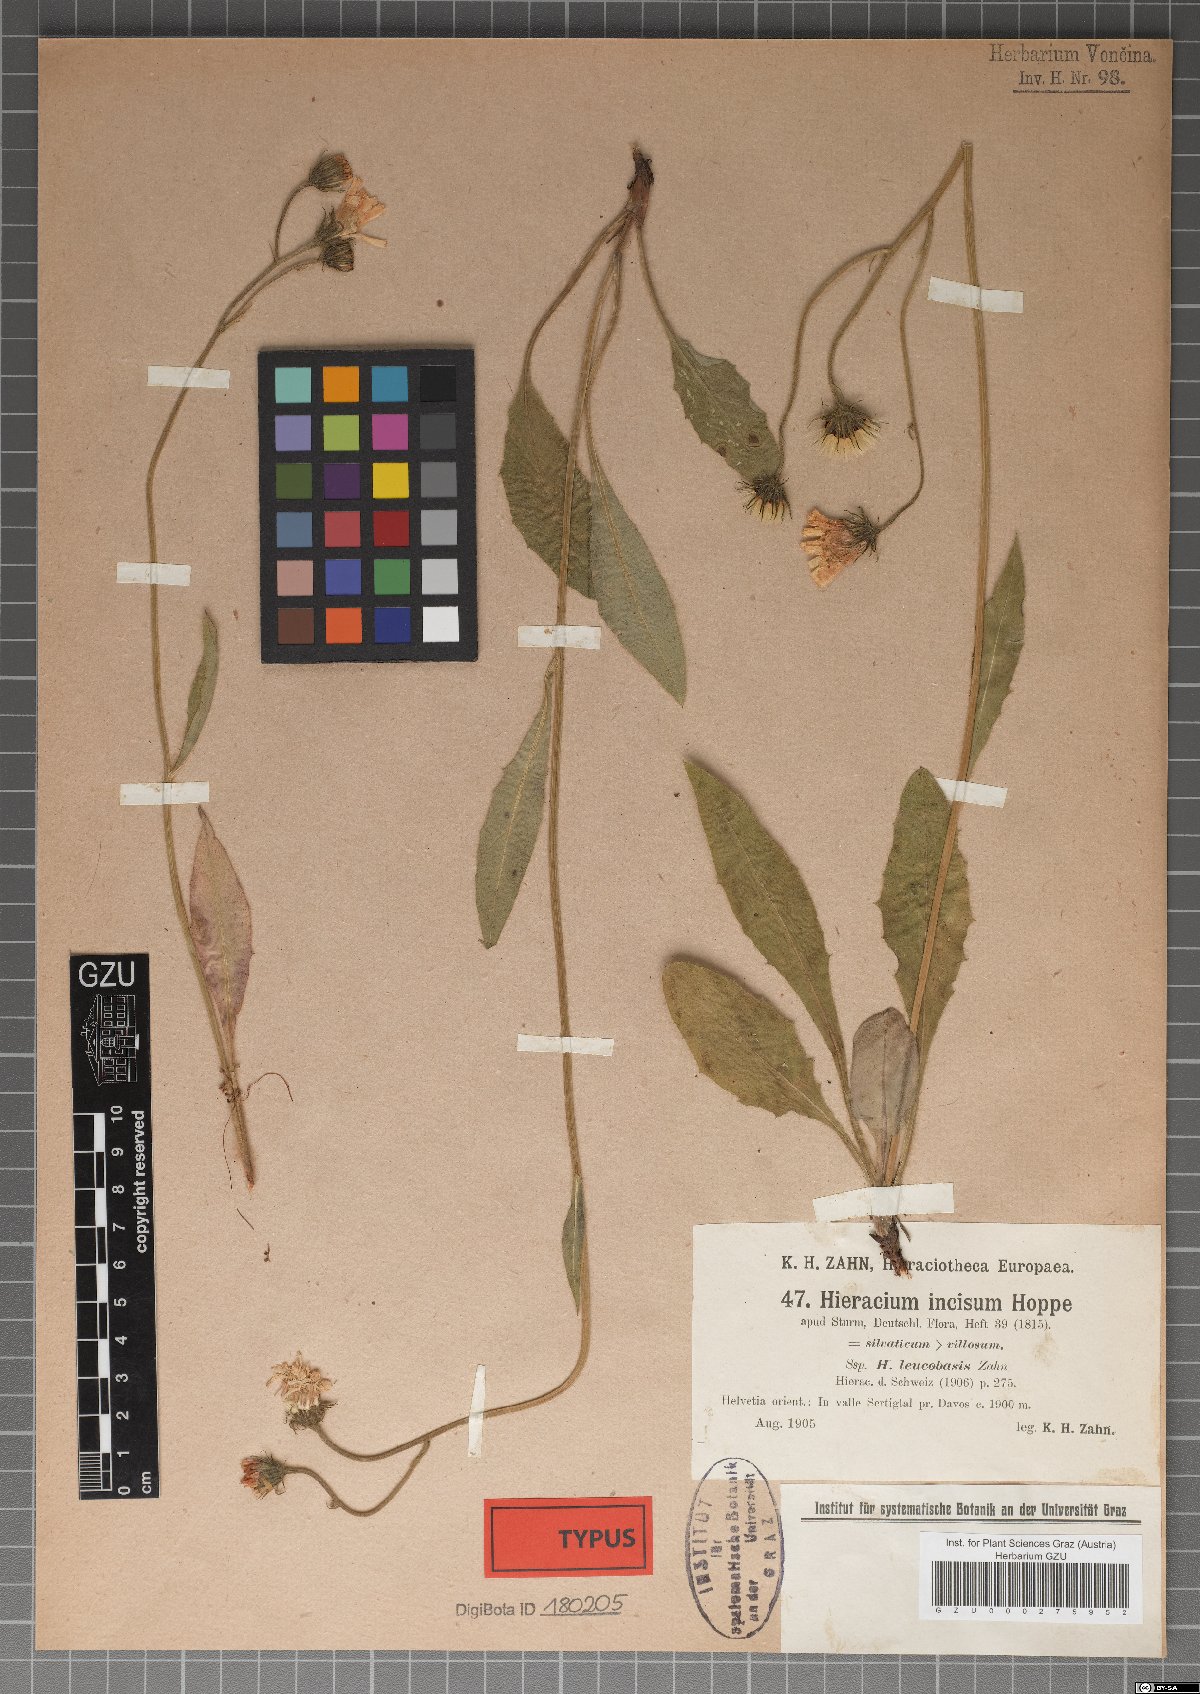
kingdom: Plantae
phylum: Tracheophyta
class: Magnoliopsida
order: Asterales
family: Asteraceae
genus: Hieracium
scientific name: Hieracium pallescens
